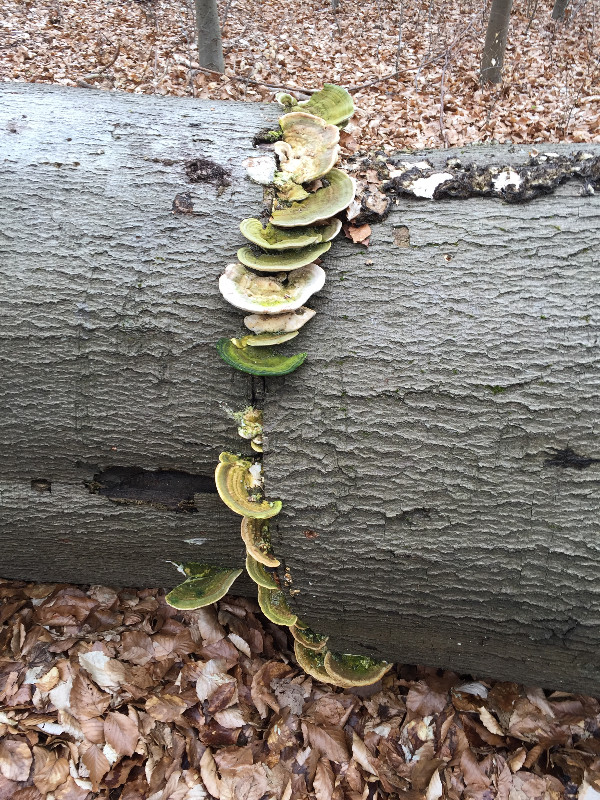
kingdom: Fungi
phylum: Basidiomycota
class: Agaricomycetes
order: Polyporales
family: Polyporaceae
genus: Trametes
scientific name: Trametes gibbosa
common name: puklet læderporesvamp
